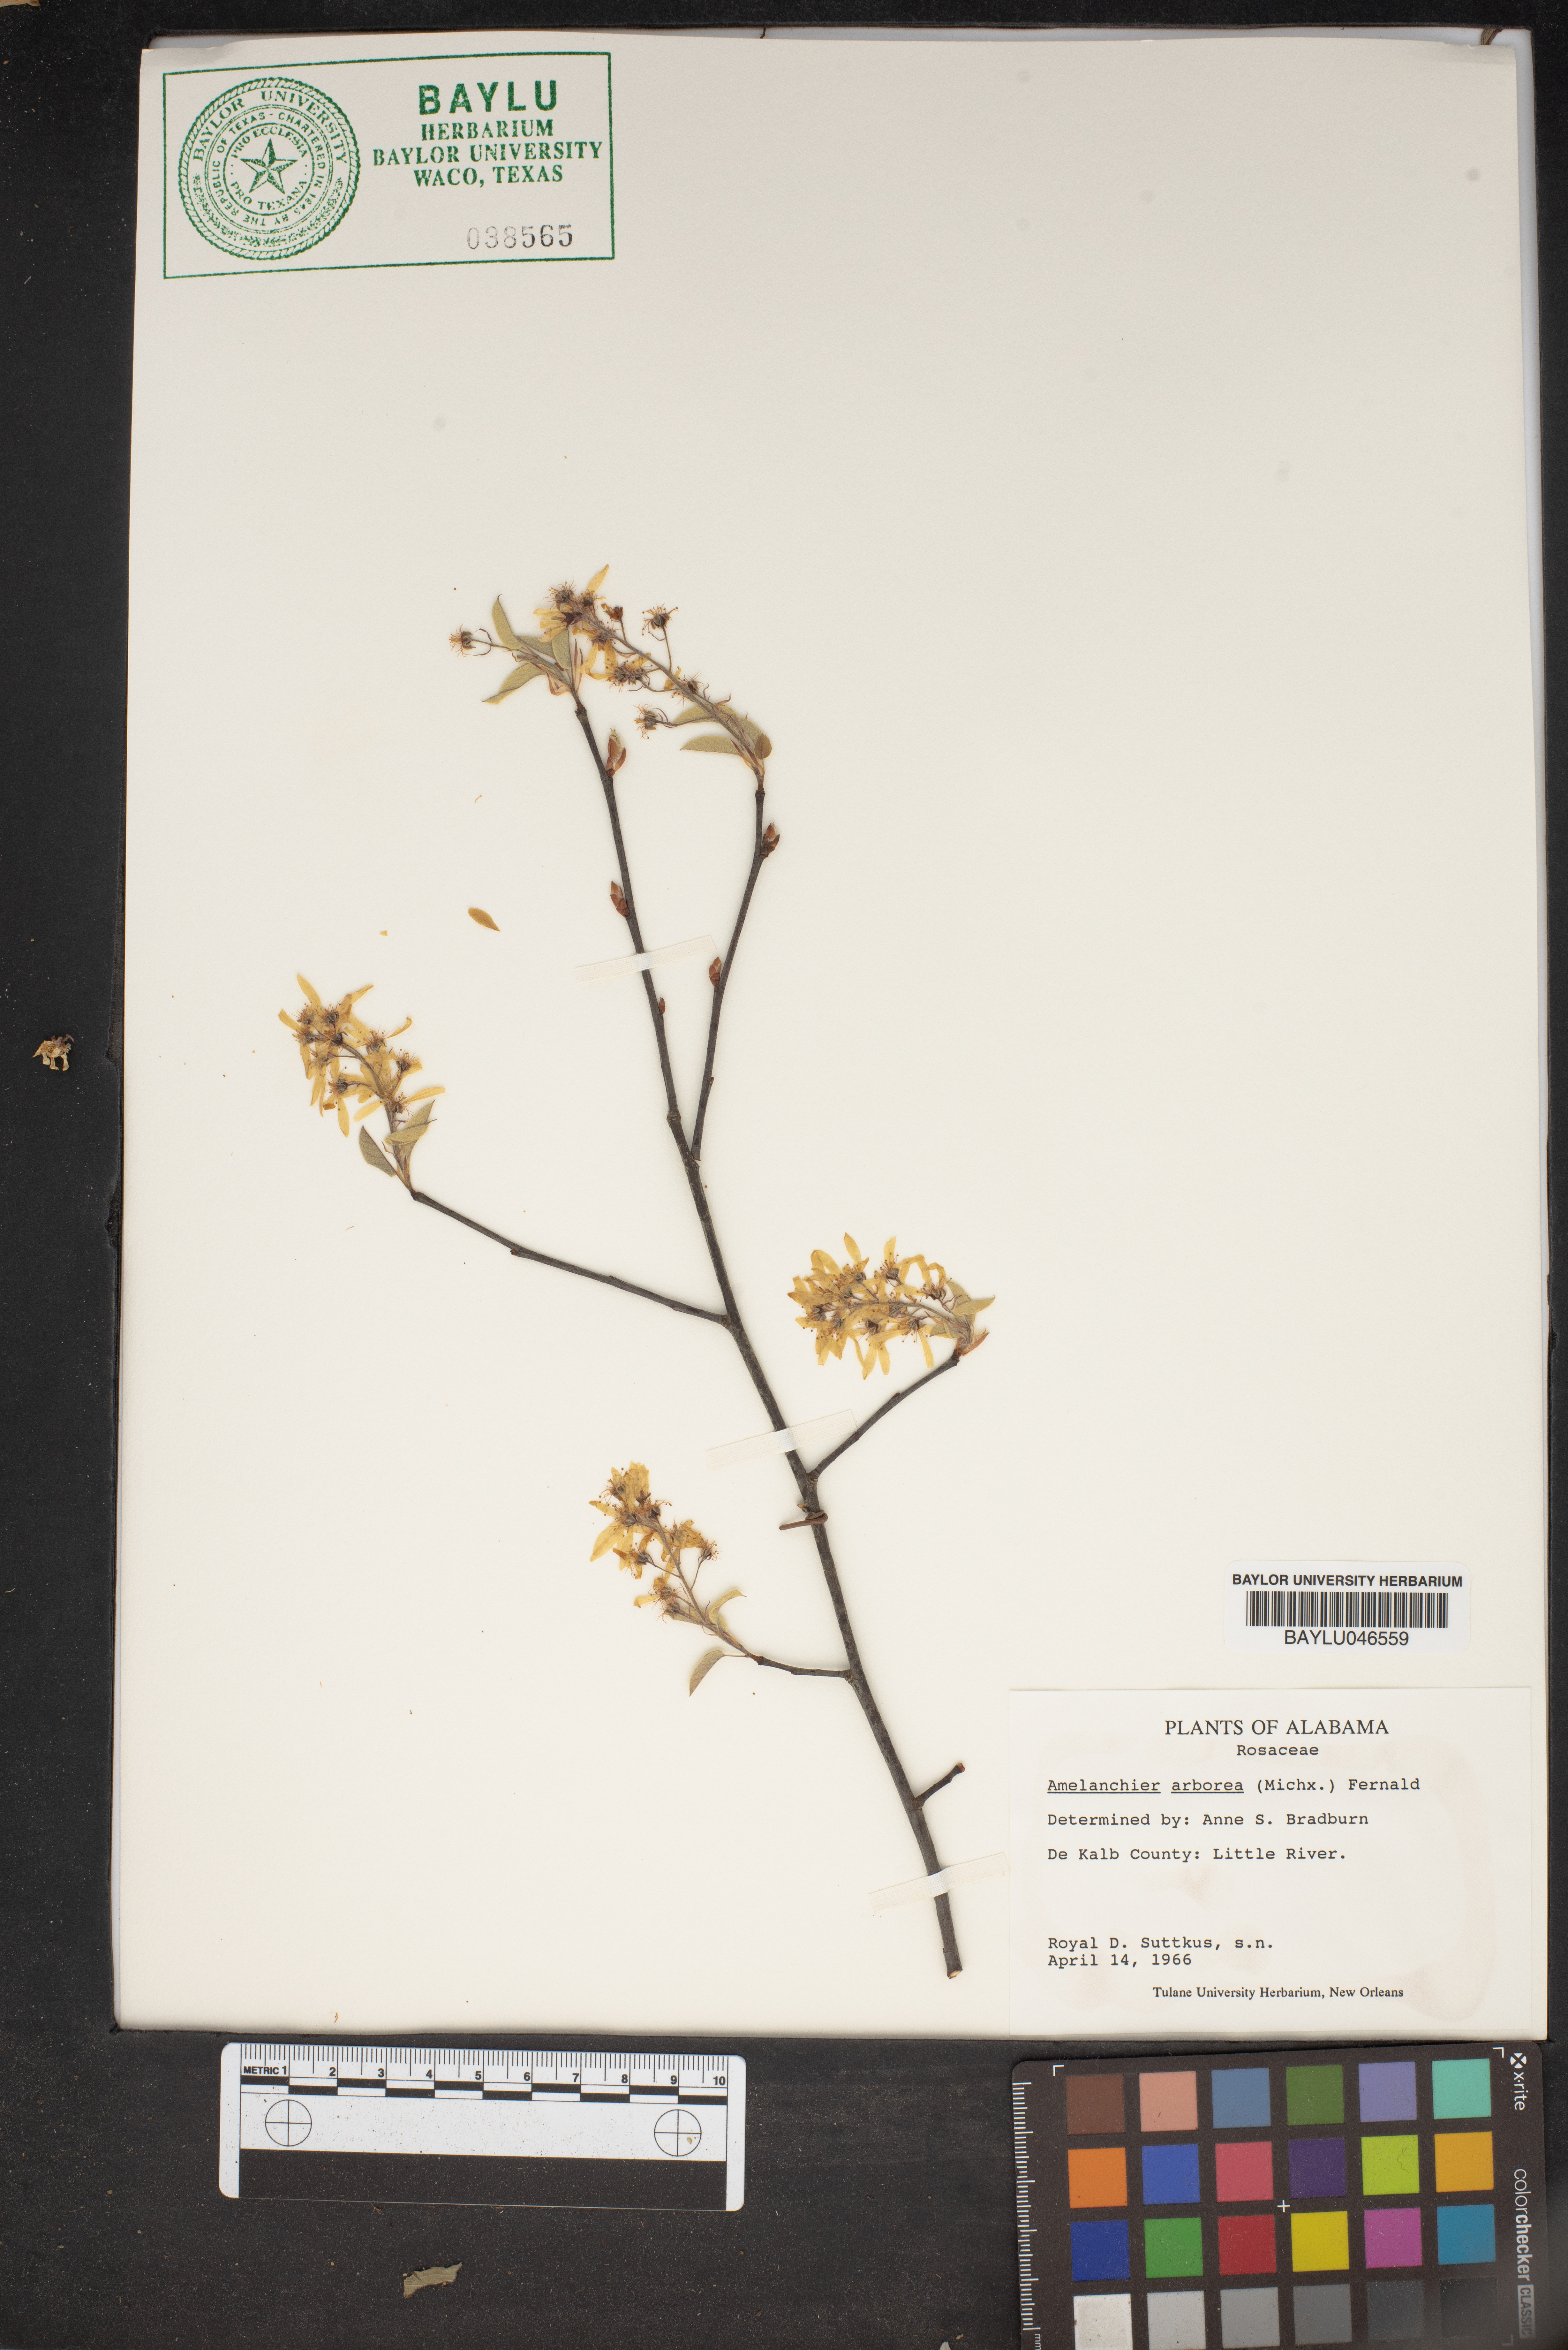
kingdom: Plantae
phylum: Tracheophyta
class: Magnoliopsida
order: Rosales
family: Rosaceae
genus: Amelanchier
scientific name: Amelanchier arborea
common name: Downy serviceberry
